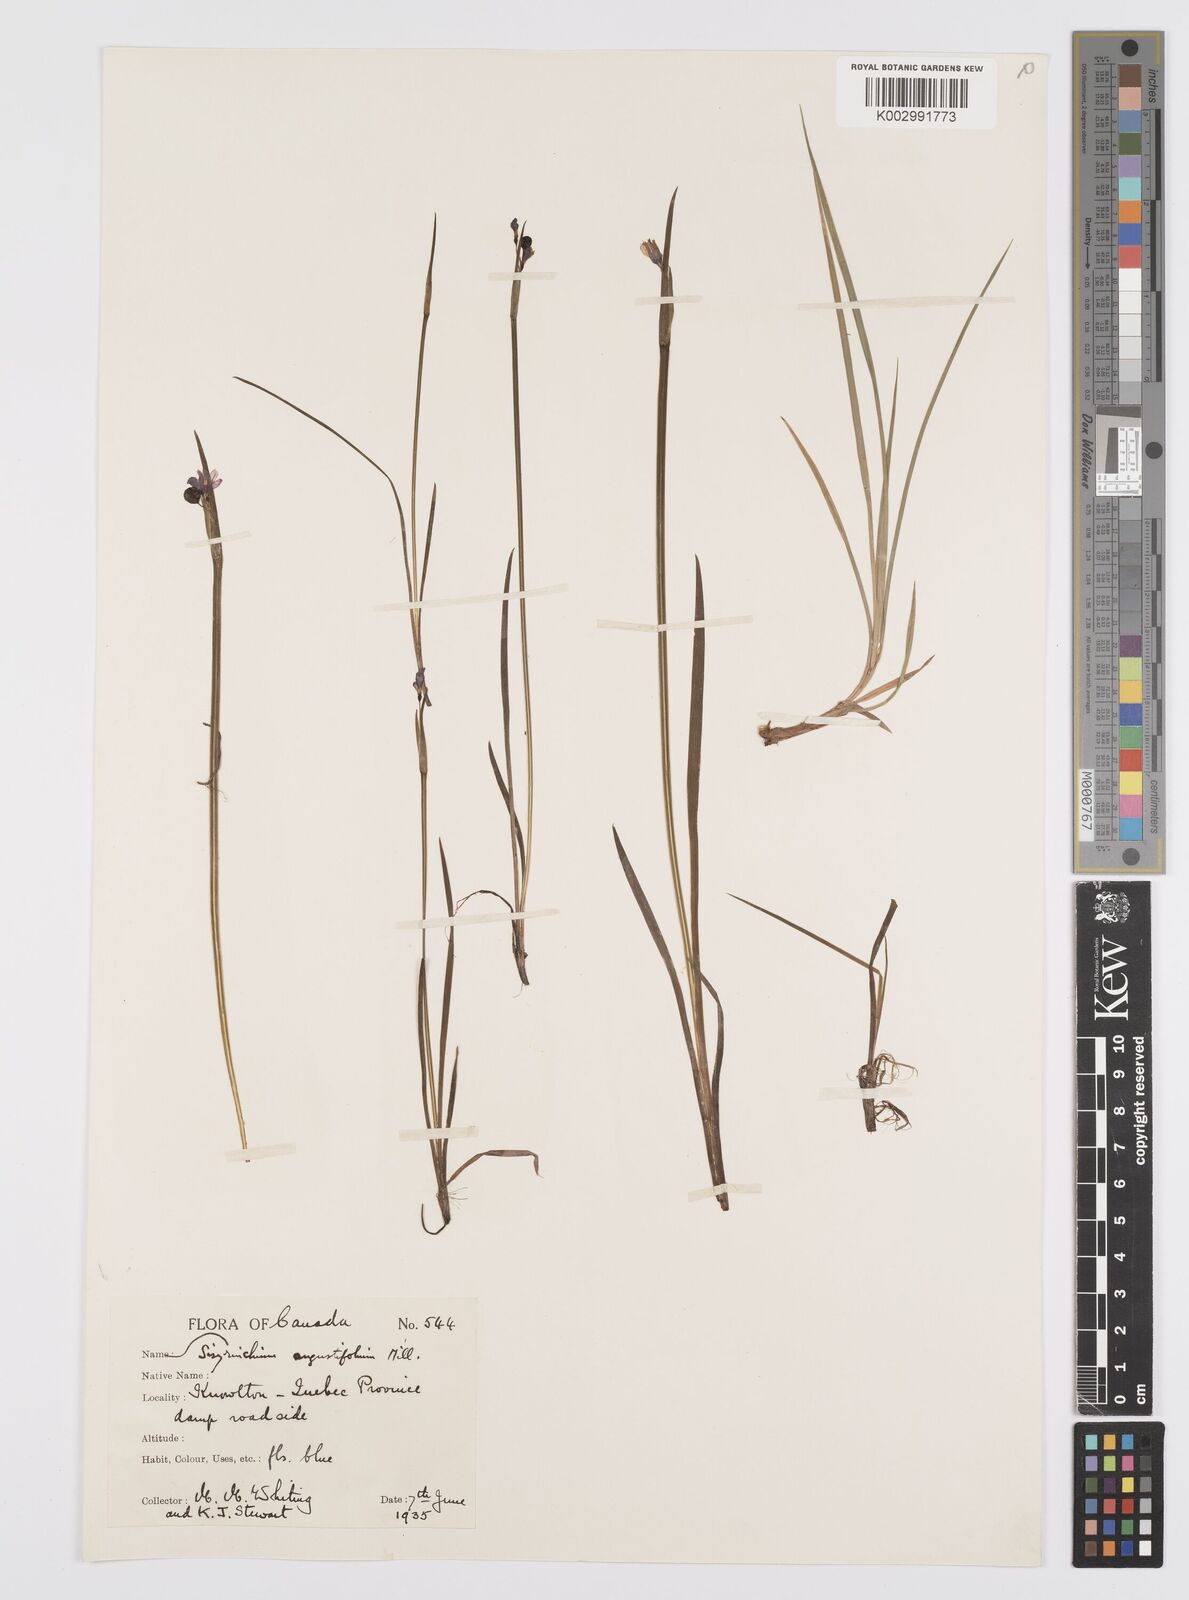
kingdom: Plantae
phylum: Tracheophyta
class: Liliopsida
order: Asparagales
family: Iridaceae
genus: Sisyrinchium
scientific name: Sisyrinchium angustifolium
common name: Narrow-leaf blue-eyed-grass
